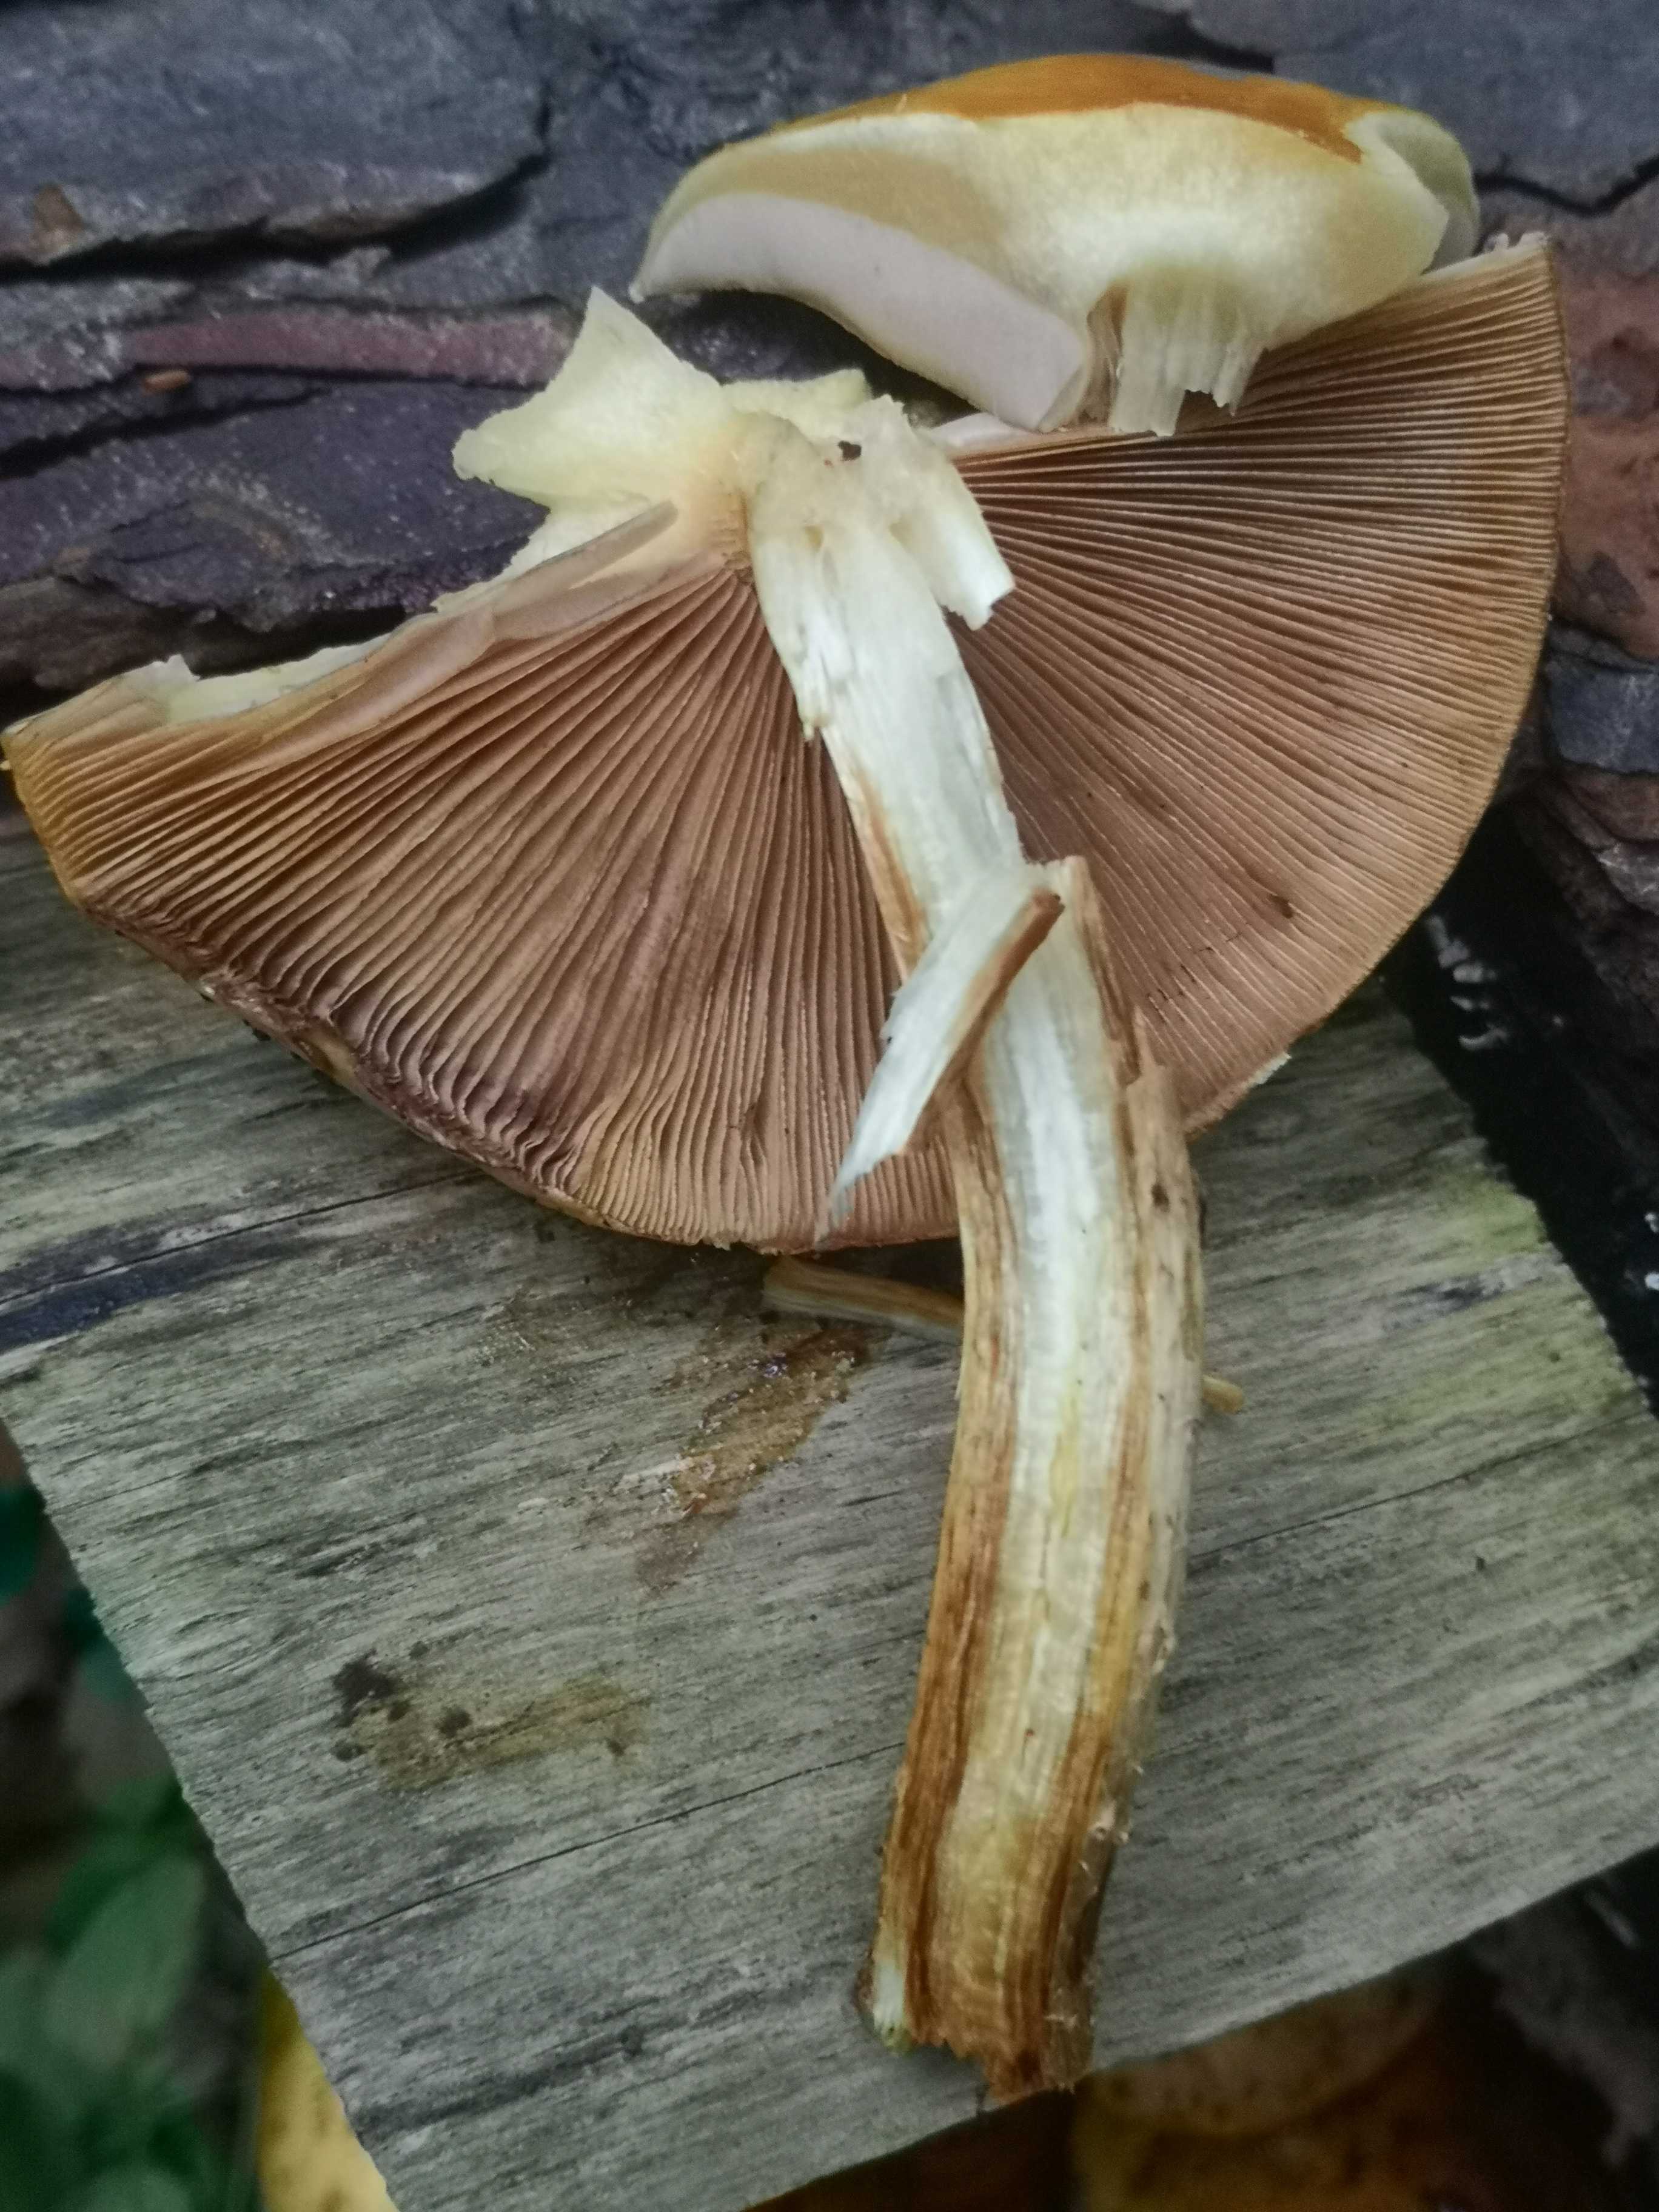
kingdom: Fungi
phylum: Basidiomycota
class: Agaricomycetes
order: Agaricales
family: Strophariaceae
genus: Pholiota
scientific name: Pholiota
